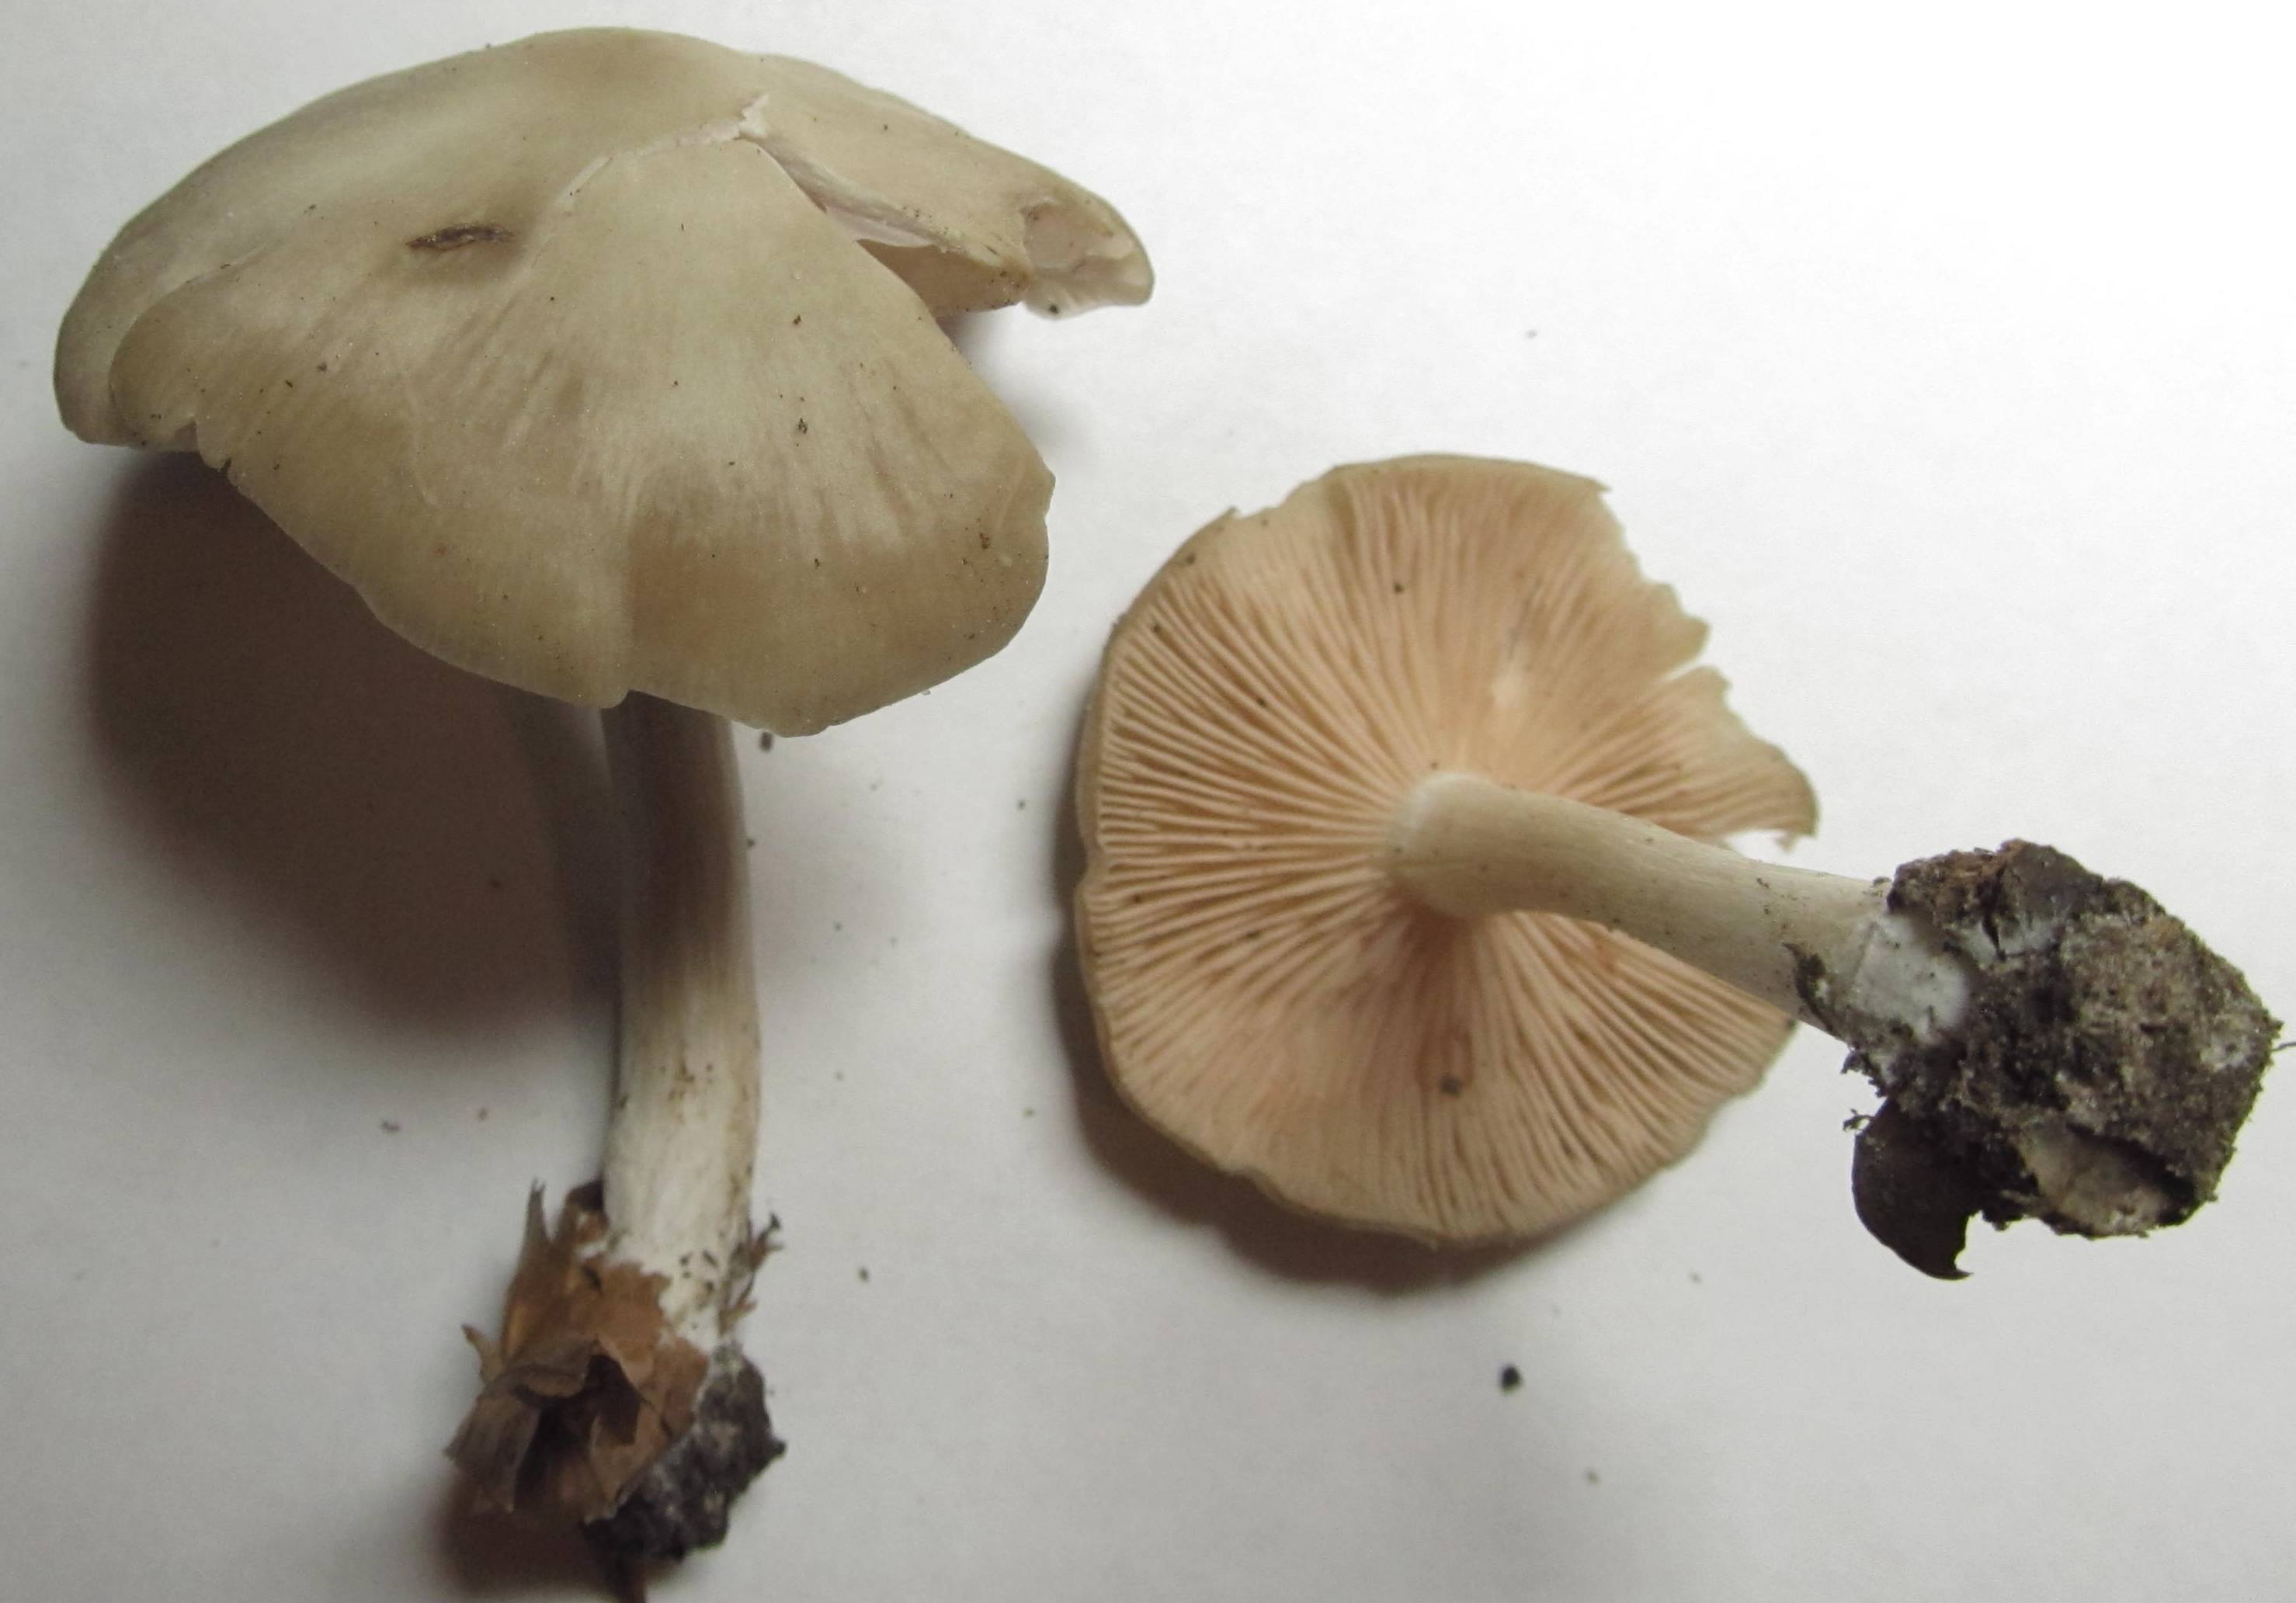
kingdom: Fungi
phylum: Basidiomycota
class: Agaricomycetes
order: Agaricales
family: Entolomataceae
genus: Entoloma
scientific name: Entoloma rhodopolium
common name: skov-rødblad
